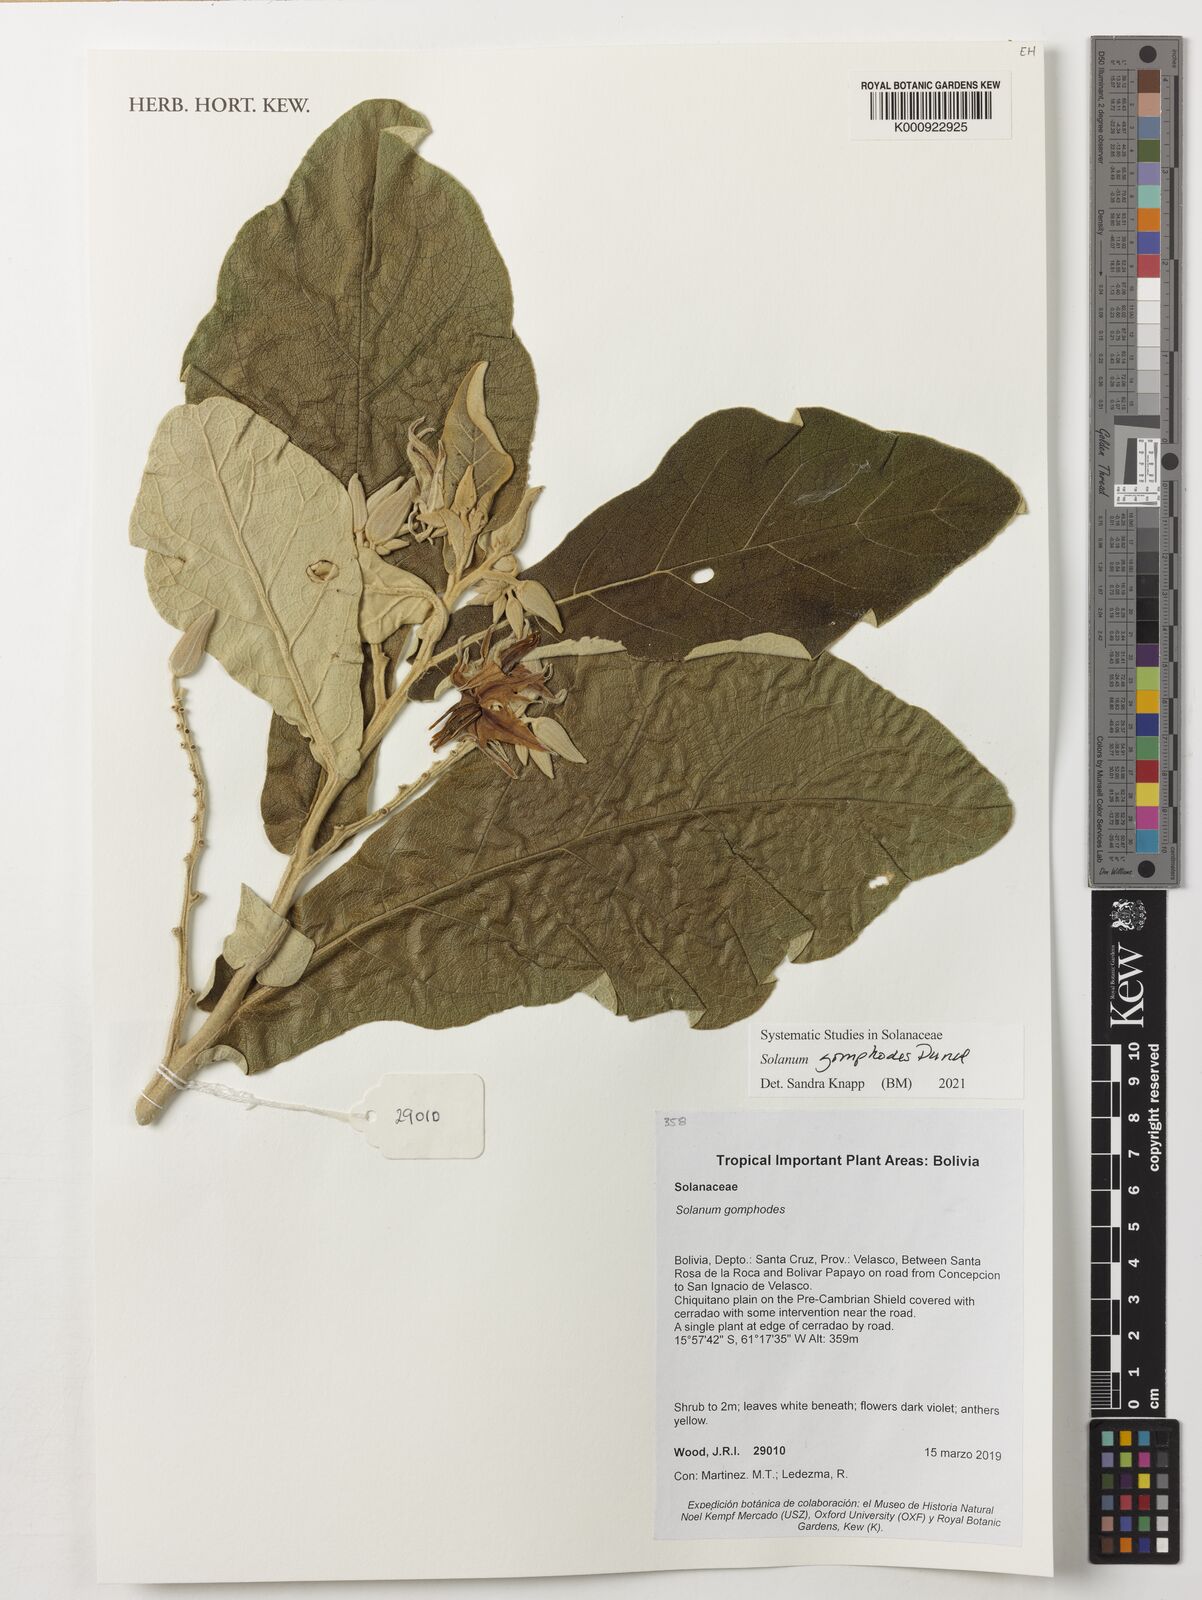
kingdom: Plantae
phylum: Tracheophyta
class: Magnoliopsida
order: Solanales
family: Solanaceae
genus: Solanum
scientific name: Solanum gomphodes
